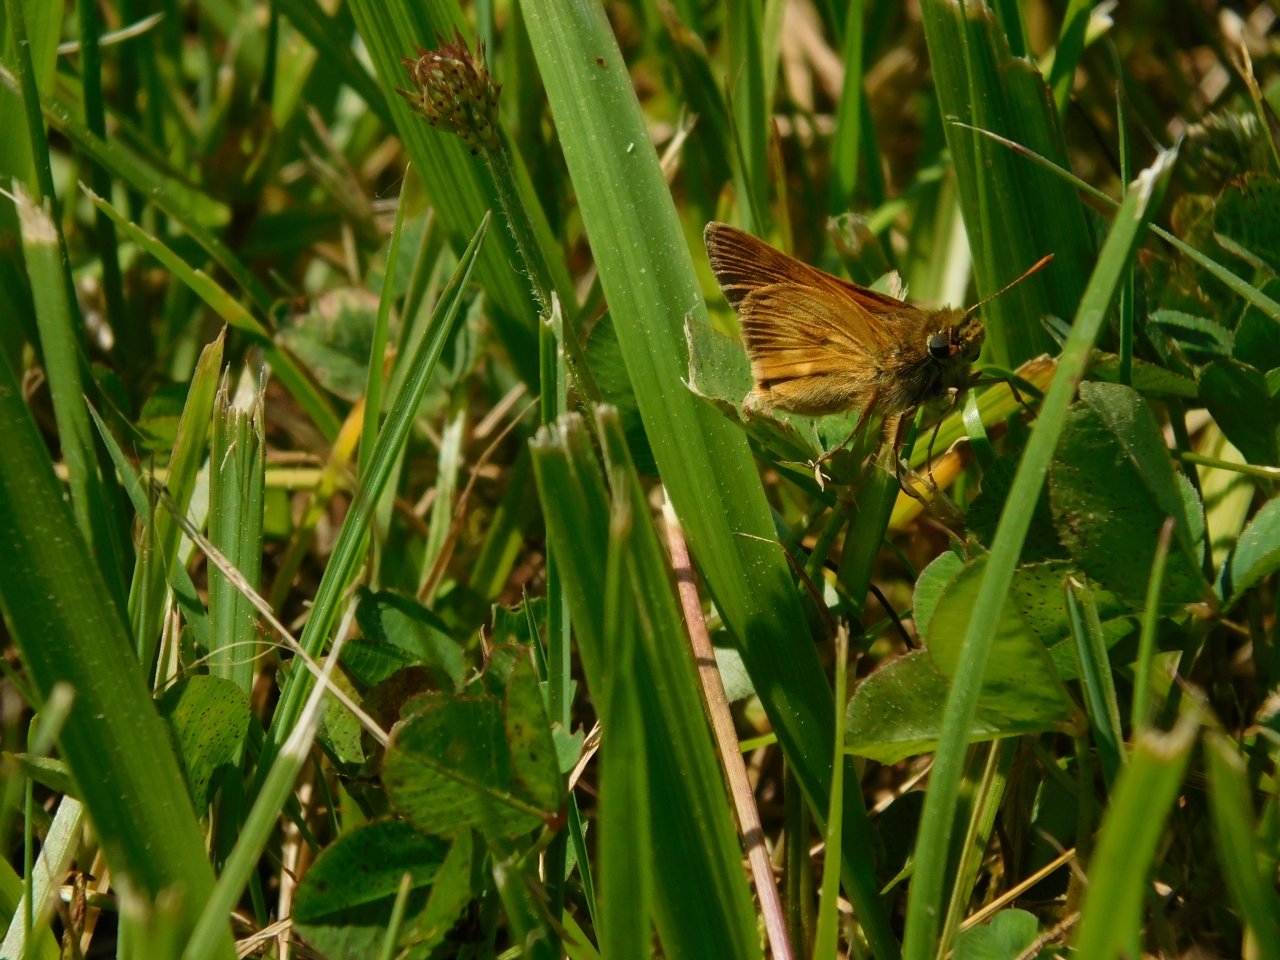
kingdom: Animalia
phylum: Arthropoda
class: Insecta
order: Lepidoptera
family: Hesperiidae
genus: Polites
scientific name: Polites
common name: Long Dash Skipper
